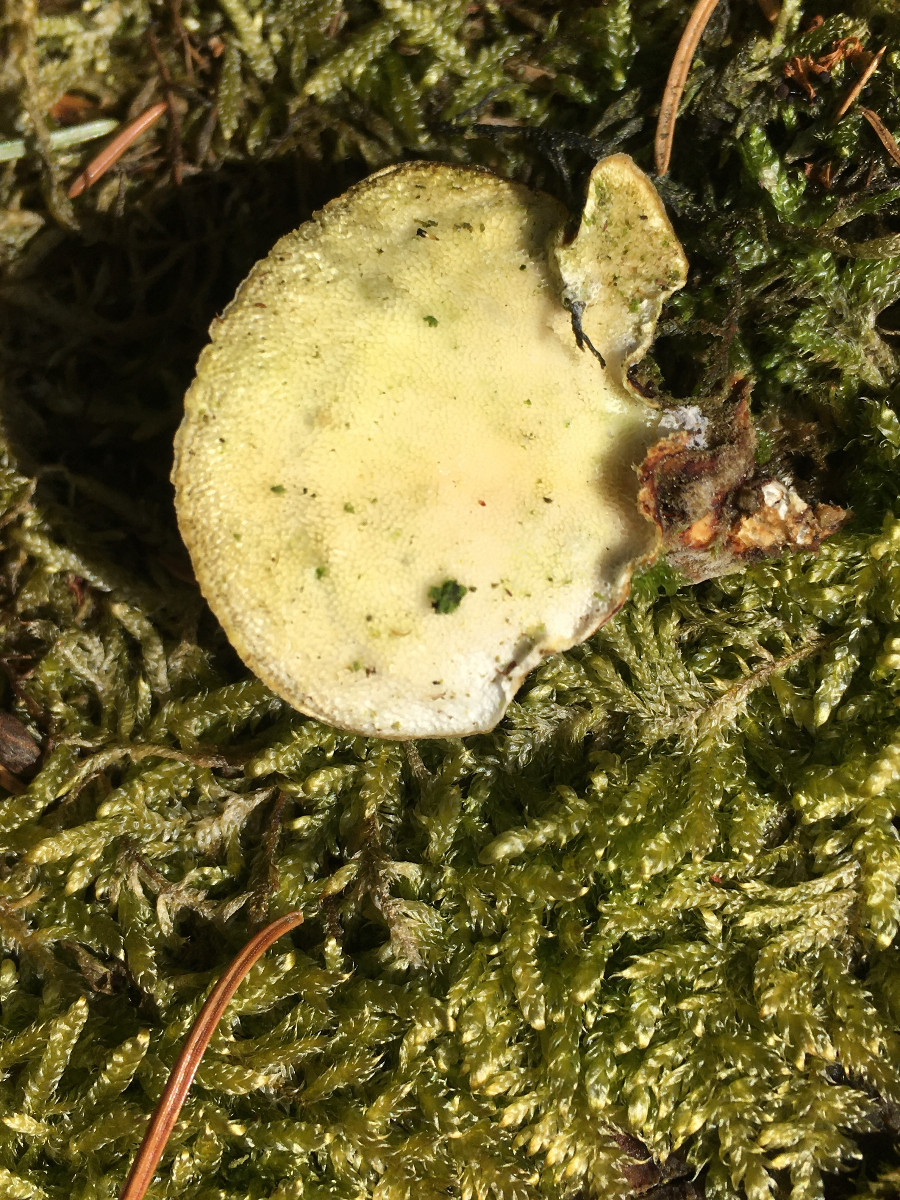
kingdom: Fungi
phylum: Basidiomycota
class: Agaricomycetes
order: Polyporales
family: Polyporaceae
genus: Trametes
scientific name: Trametes versicolor
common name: broget læderporesvamp
